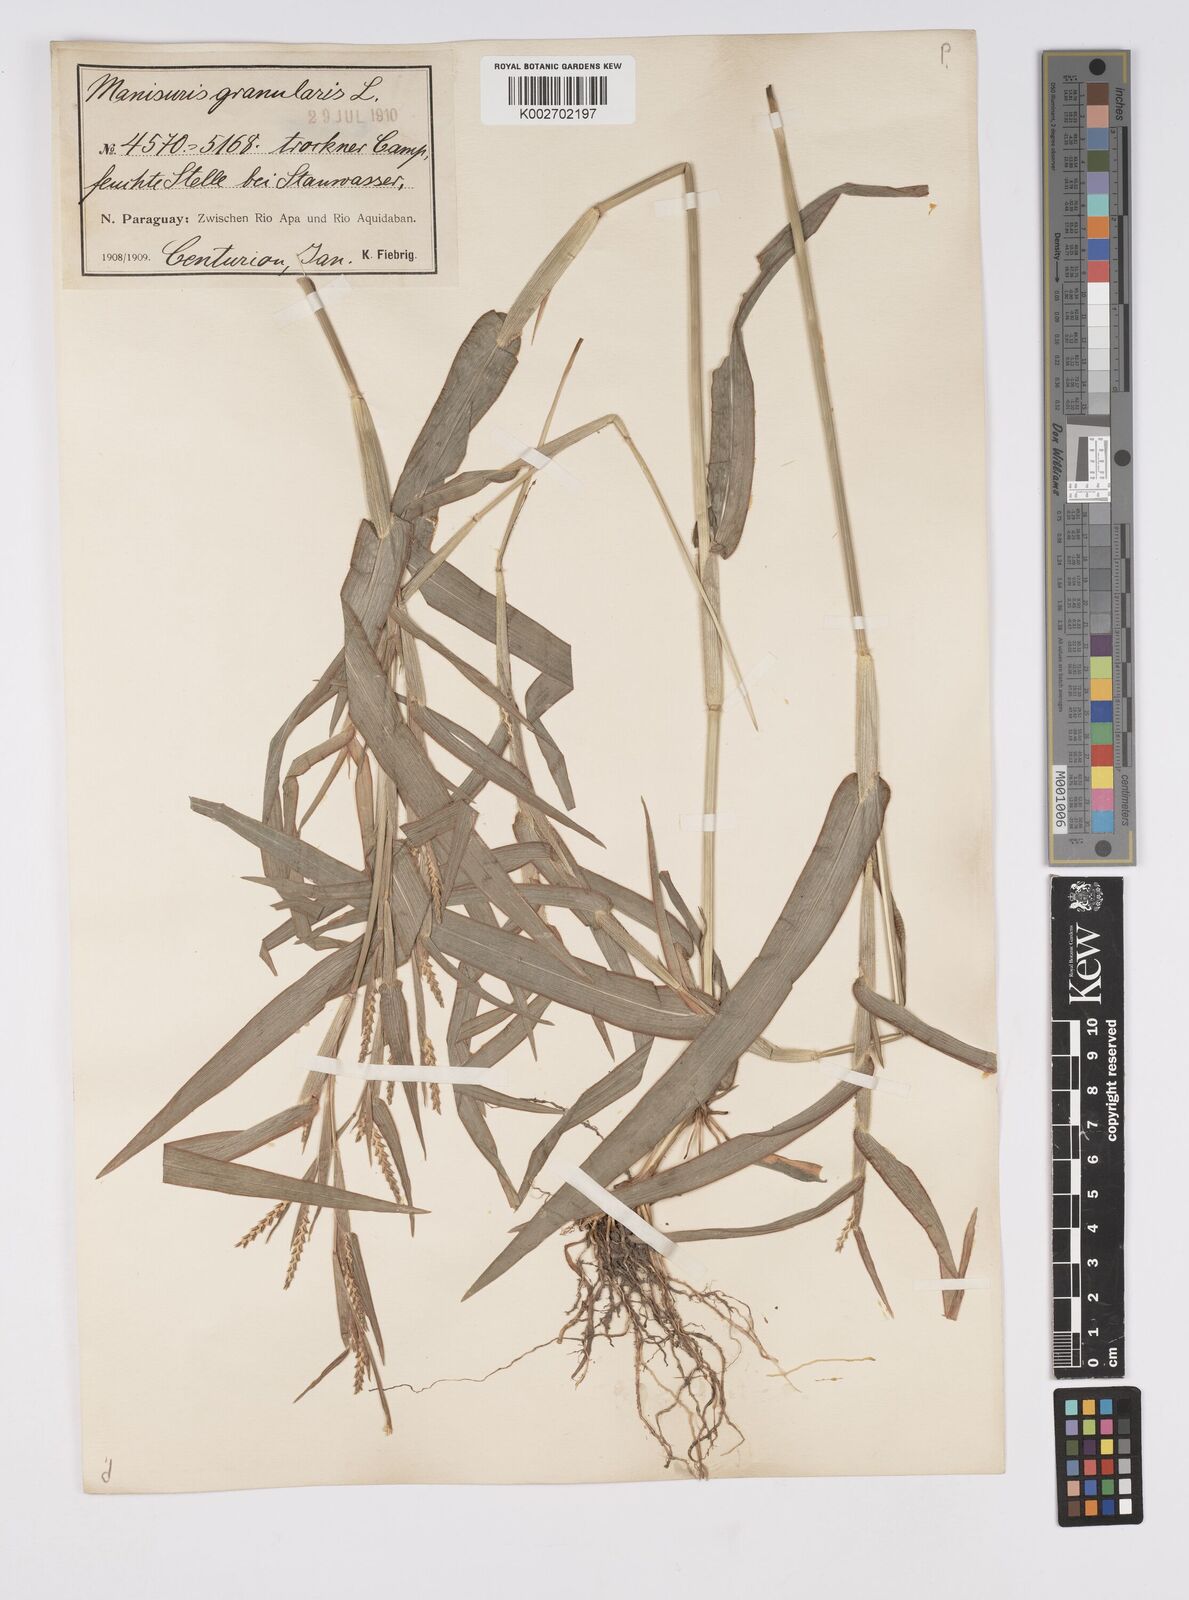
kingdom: Plantae
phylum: Tracheophyta
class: Liliopsida
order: Poales
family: Poaceae
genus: Hackelochloa
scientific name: Hackelochloa granularis
